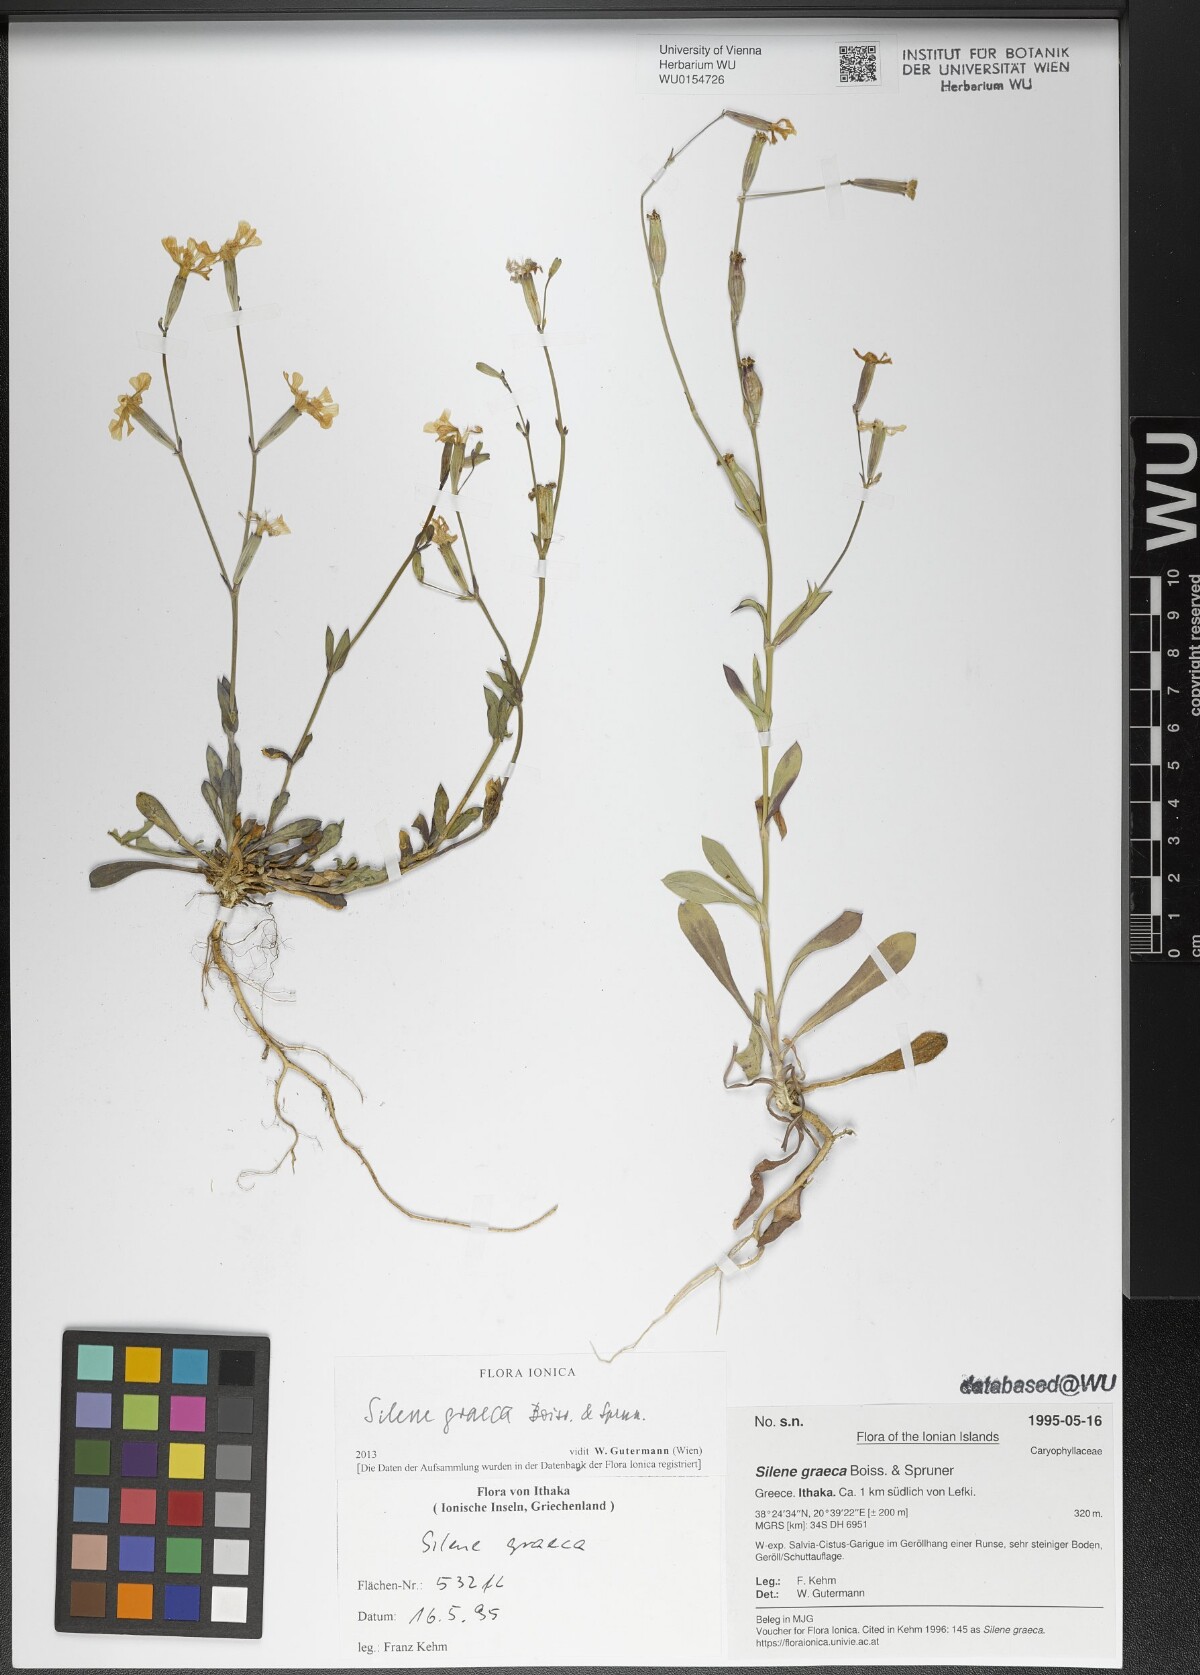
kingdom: Plantae
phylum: Tracheophyta
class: Magnoliopsida
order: Caryophyllales
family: Caryophyllaceae
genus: Silene
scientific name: Silene graeca
